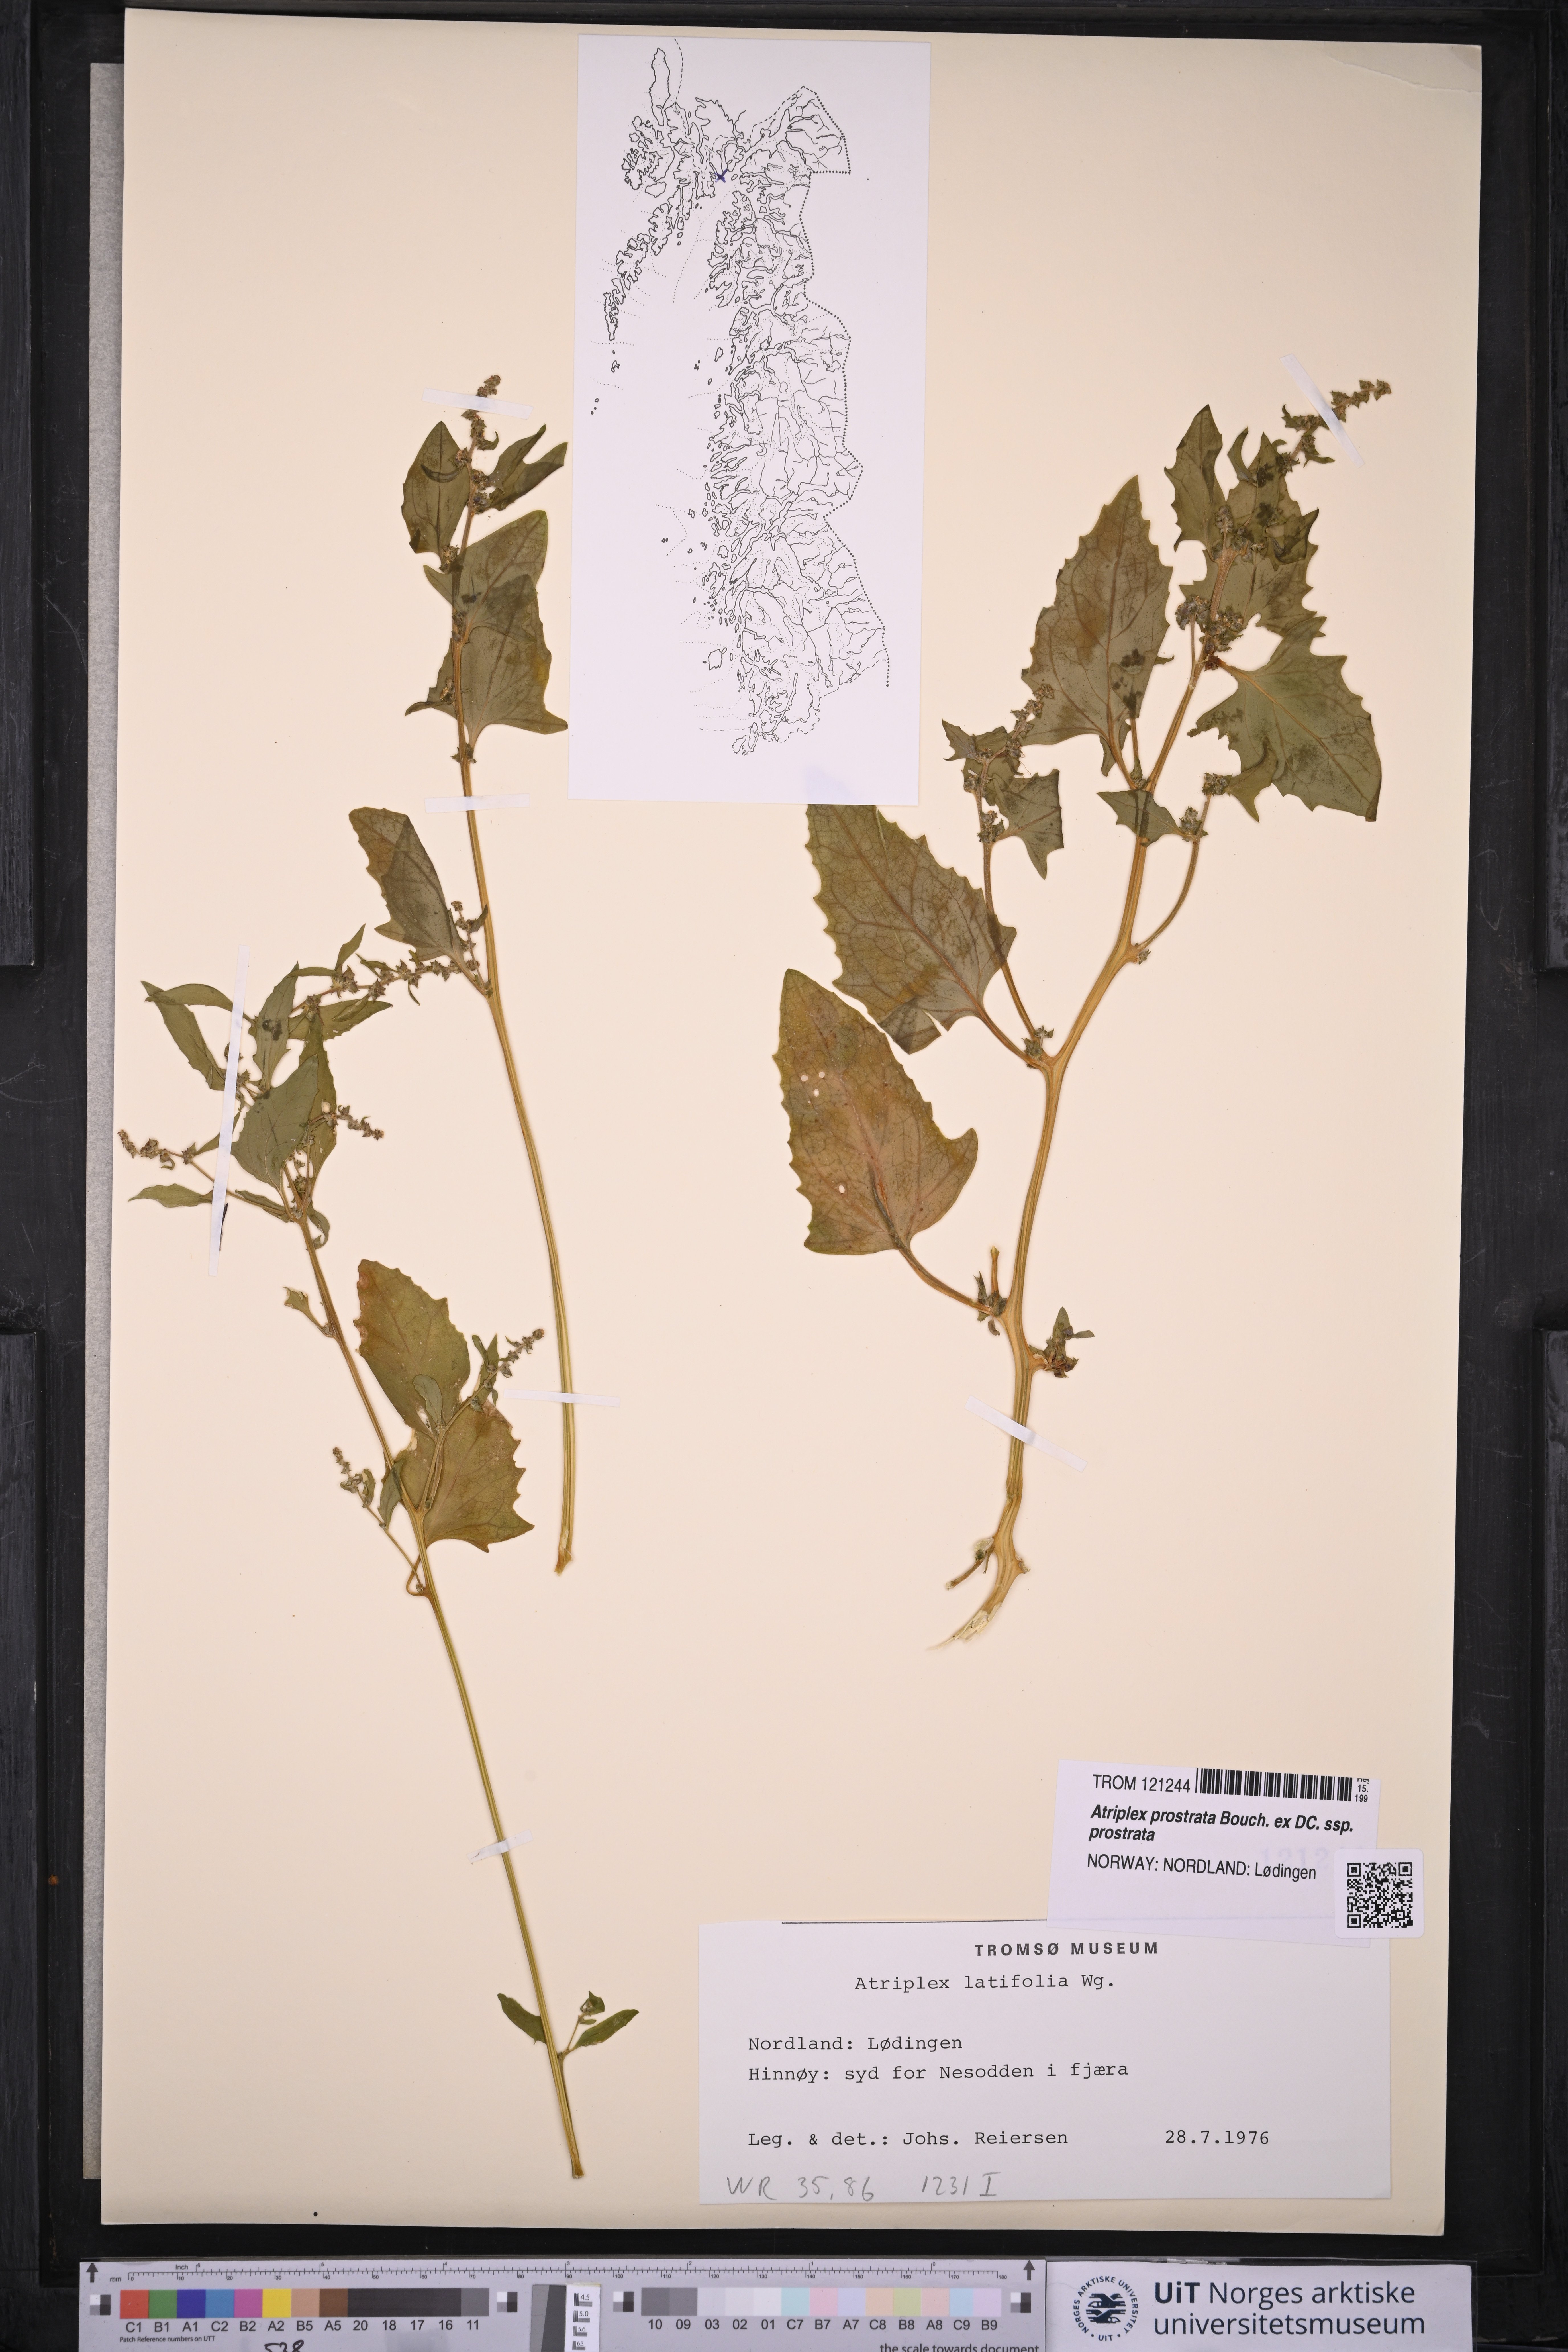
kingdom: Plantae
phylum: Tracheophyta
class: Magnoliopsida
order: Caryophyllales
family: Amaranthaceae
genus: Atriplex
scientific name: Atriplex prostrata
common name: Spear-leaved orache
